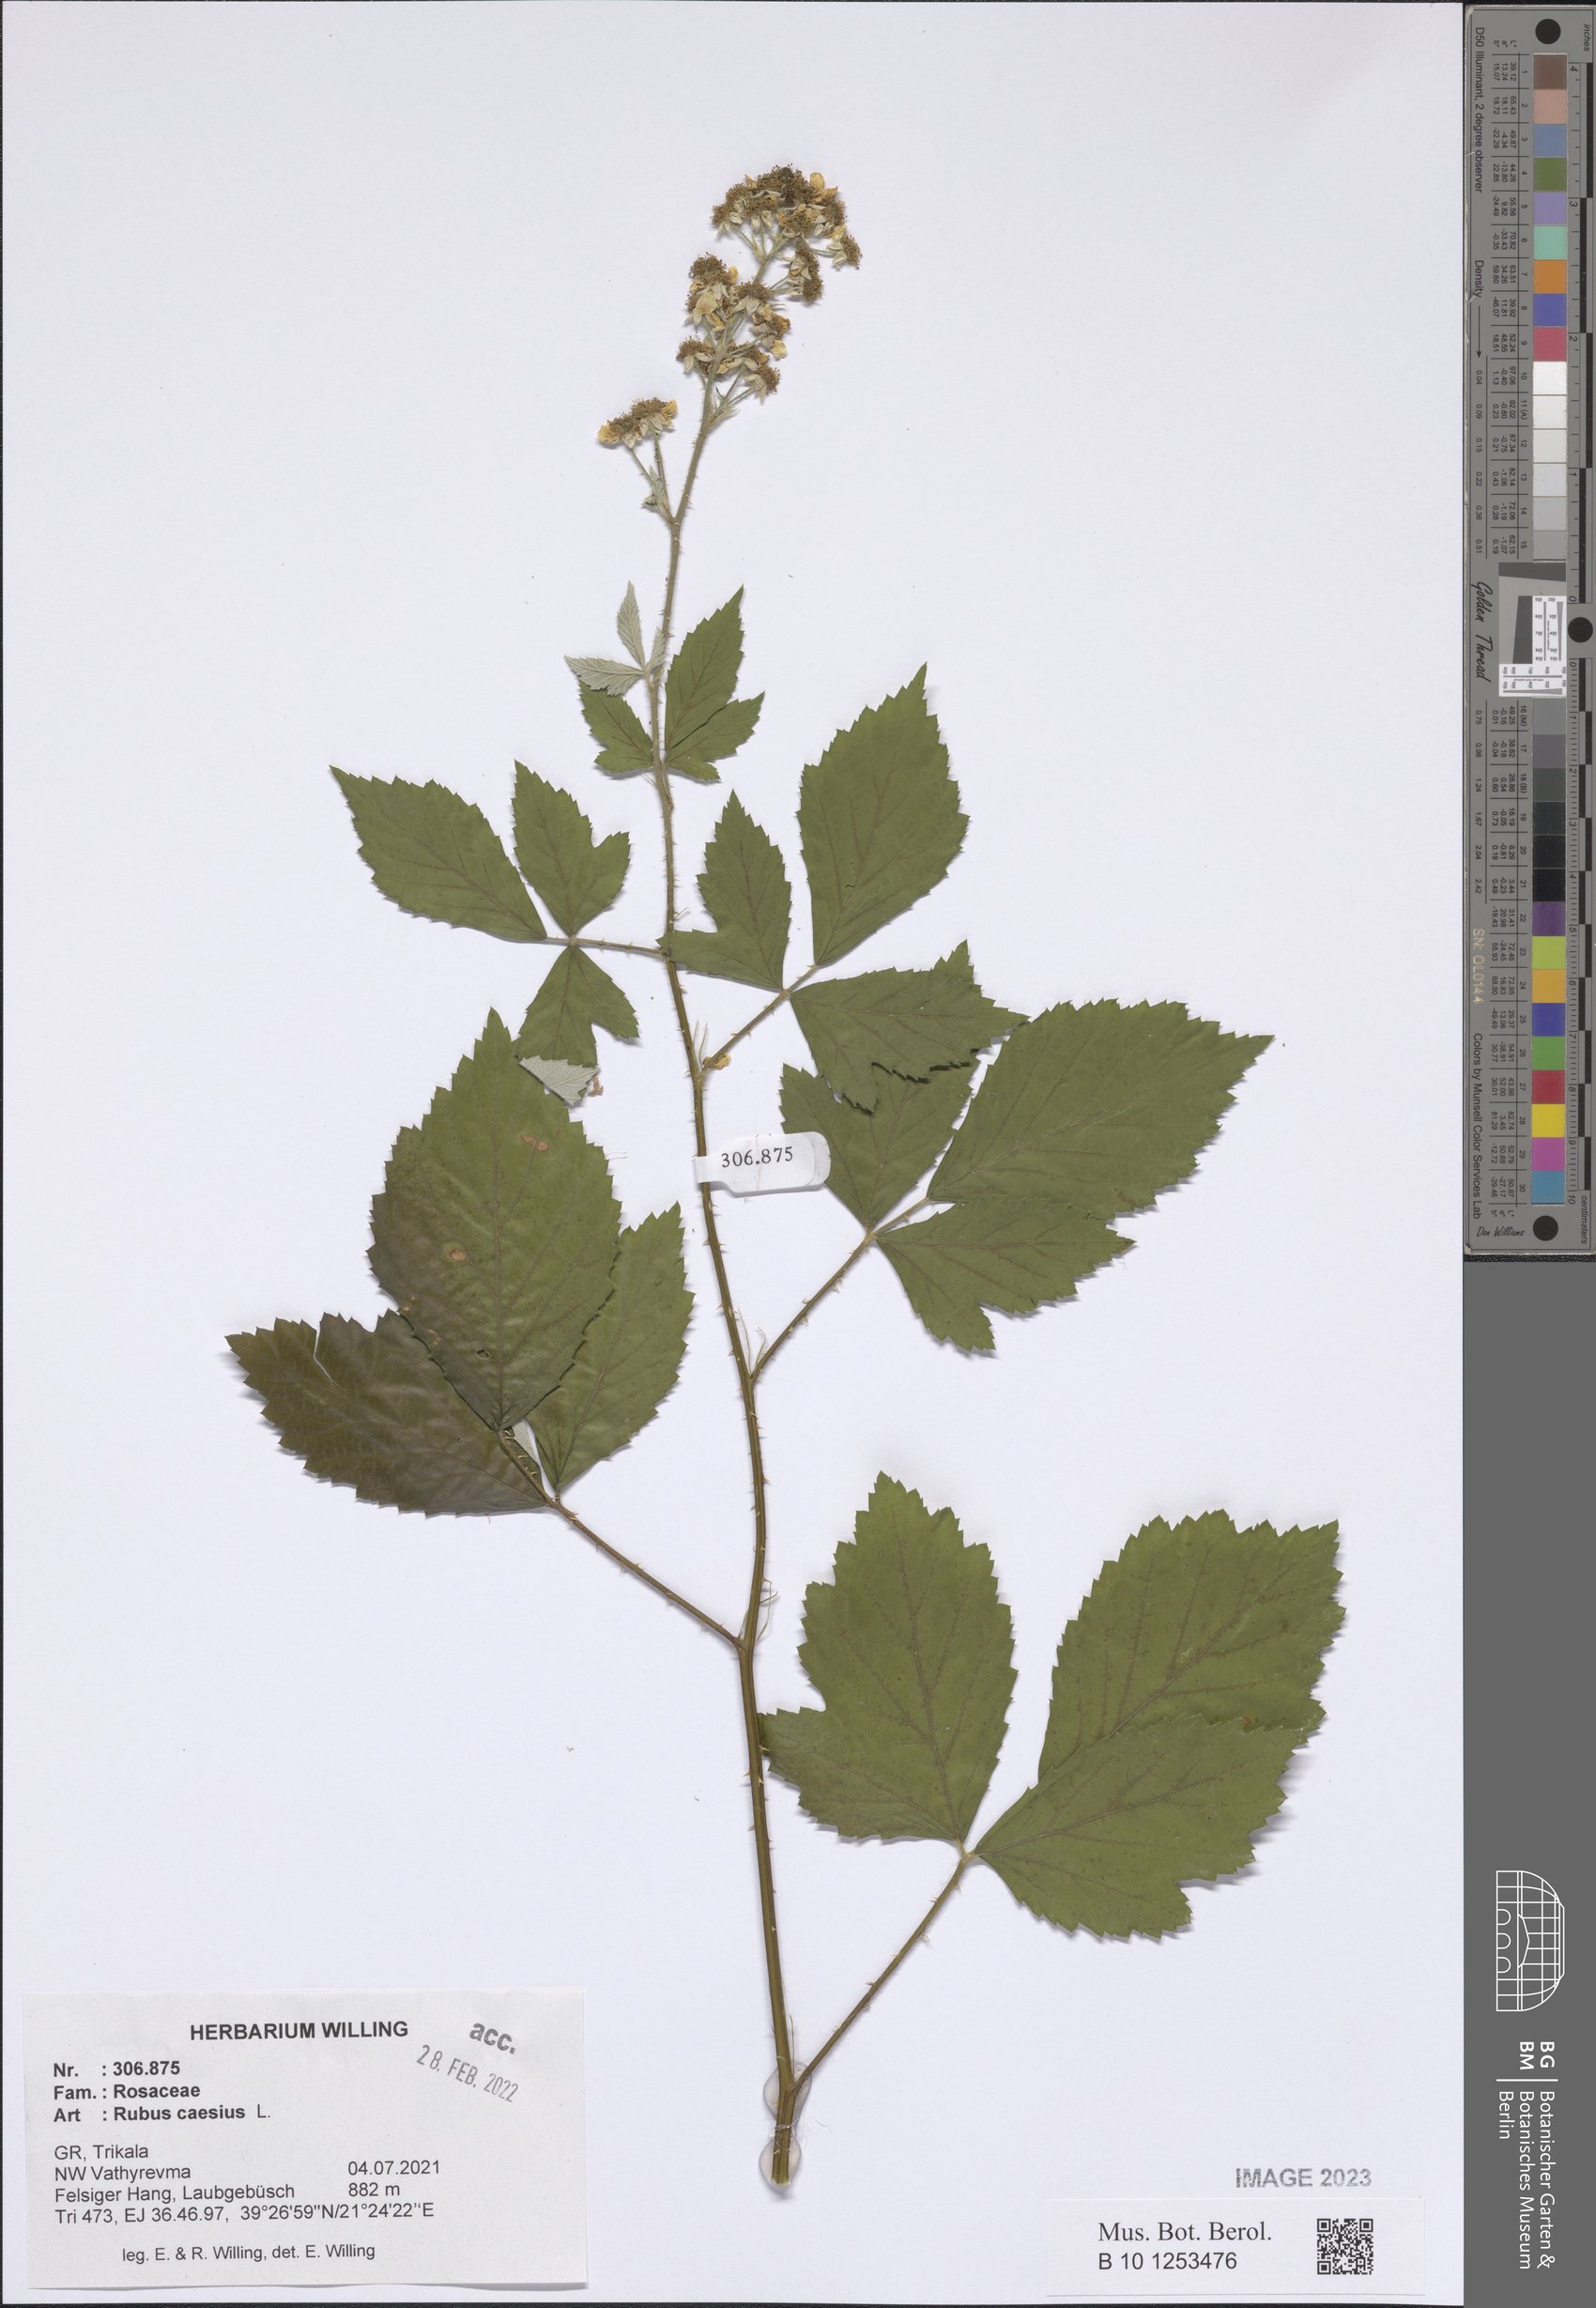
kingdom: Plantae
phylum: Tracheophyta
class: Magnoliopsida
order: Rosales
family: Rosaceae
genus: Rubus
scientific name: Rubus caesius
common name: Dewberry
